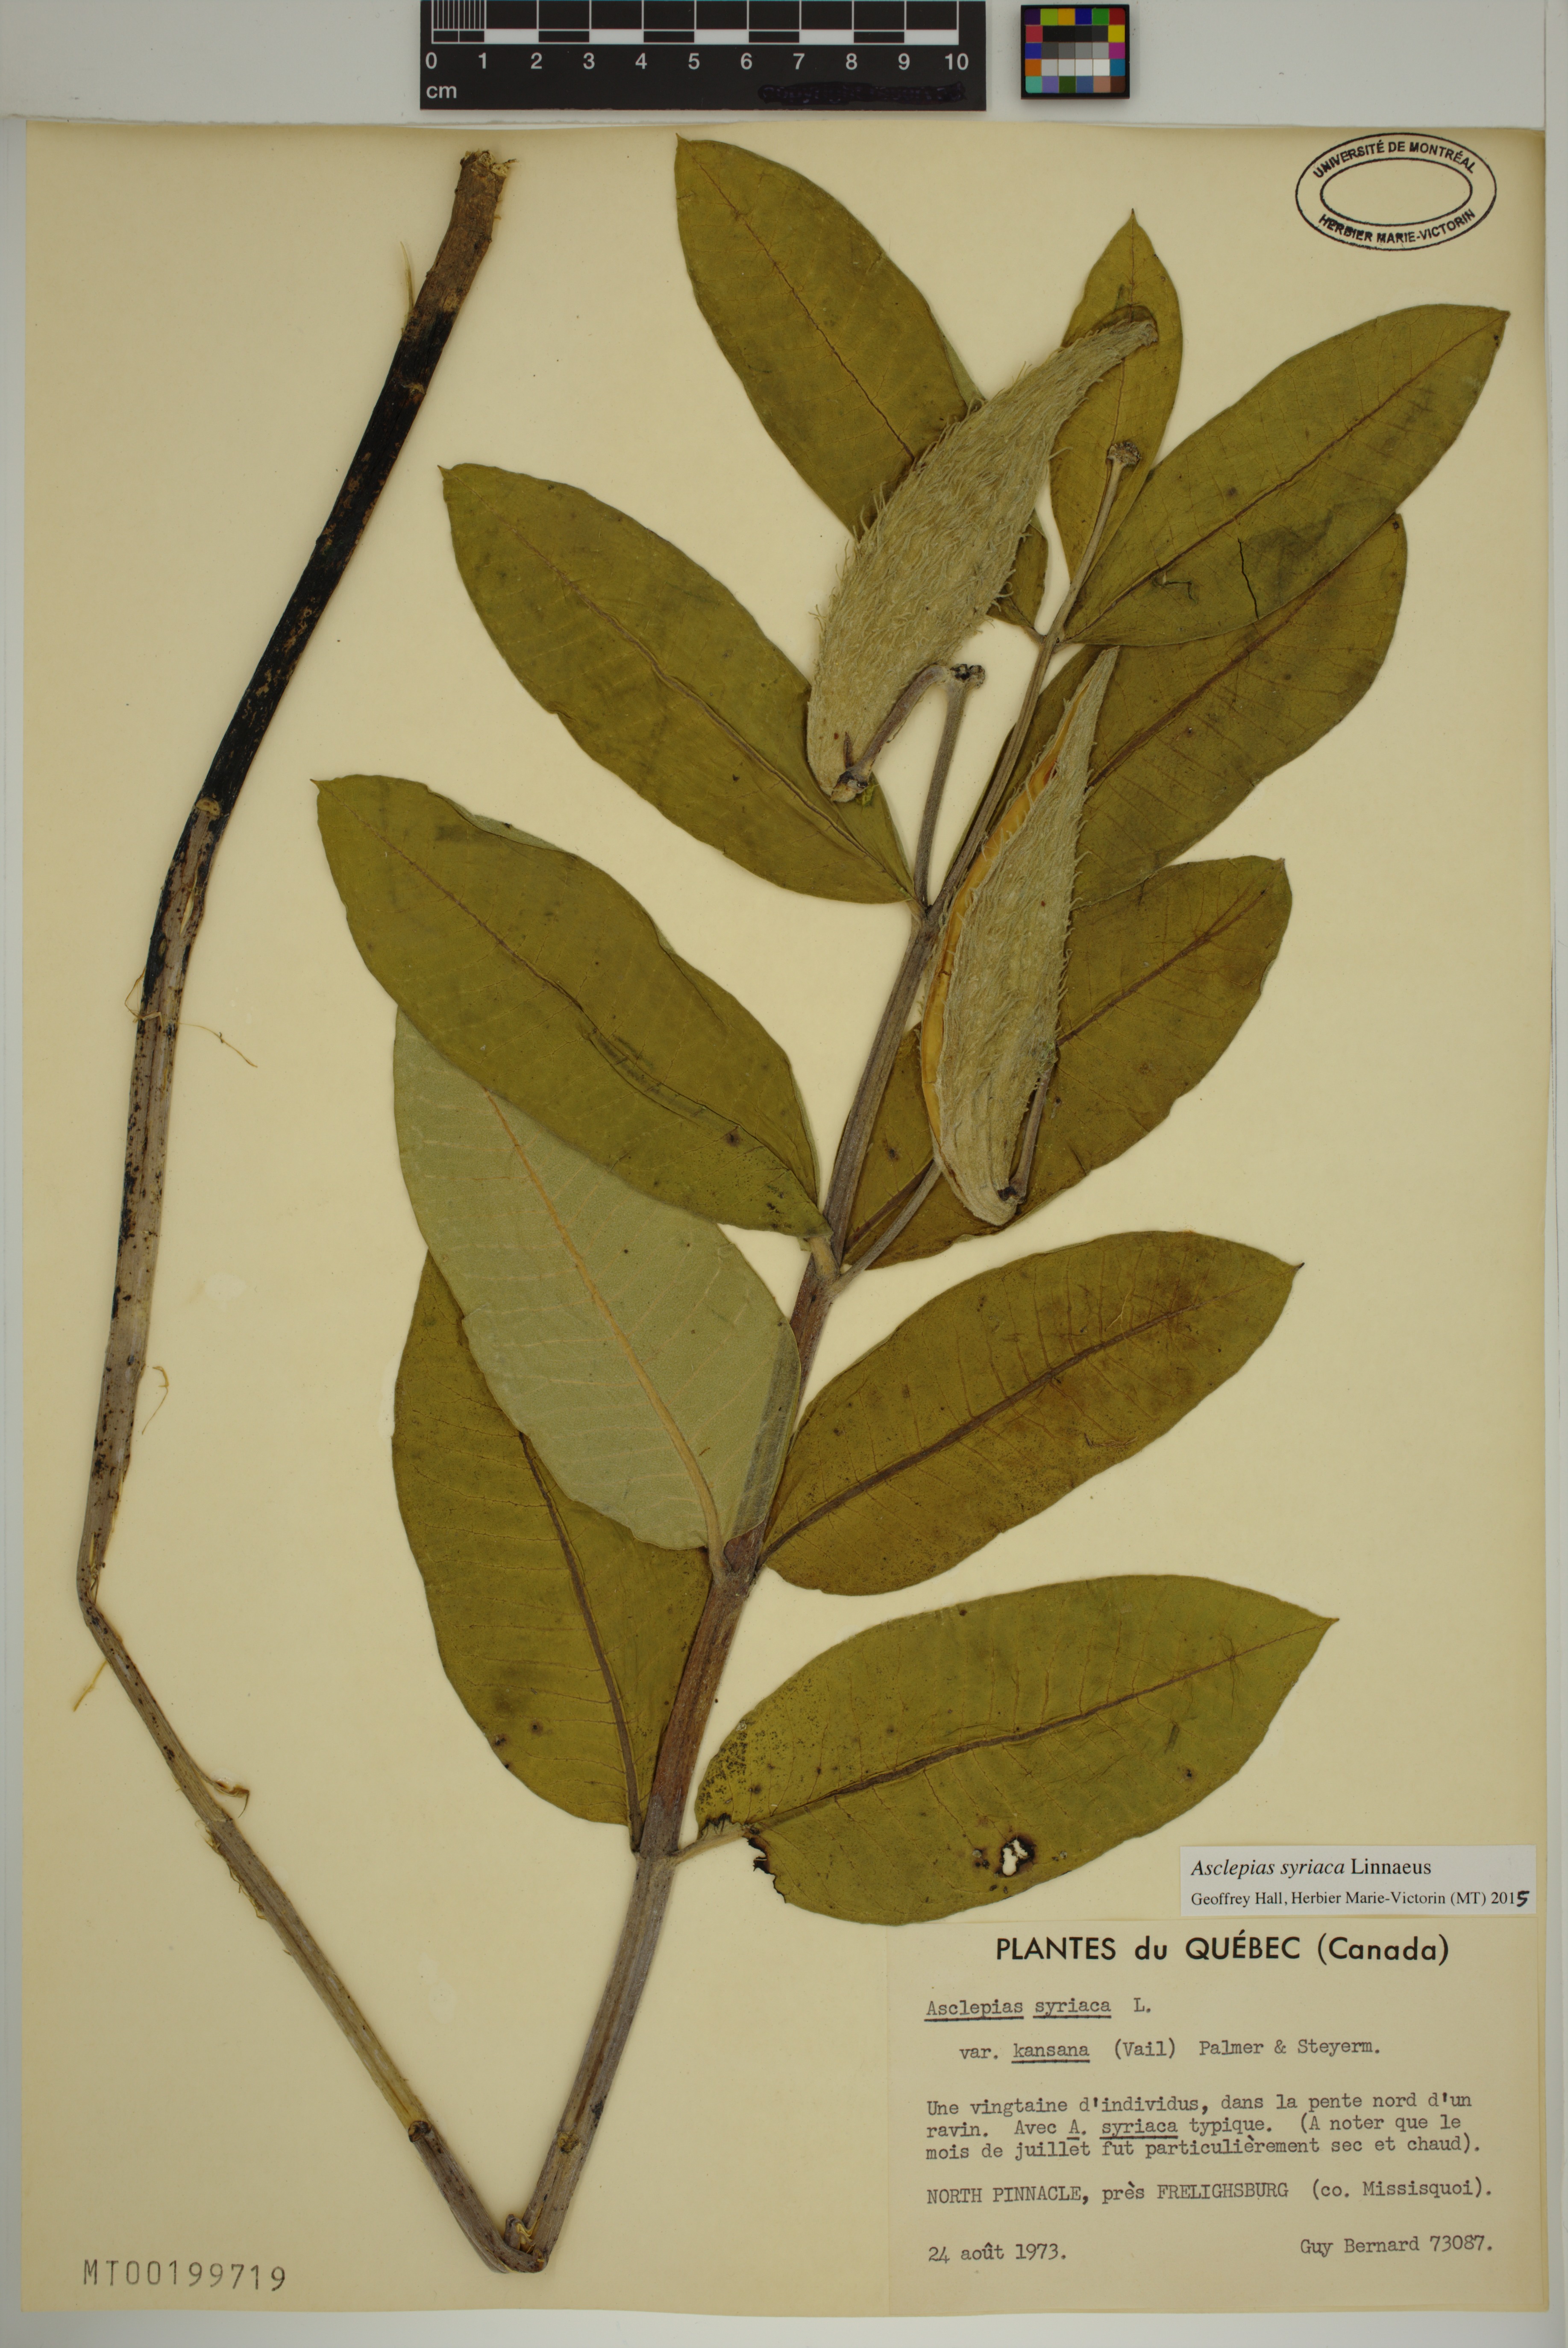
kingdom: Plantae
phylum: Tracheophyta
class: Magnoliopsida
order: Gentianales
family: Apocynaceae
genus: Asclepias
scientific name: Asclepias syriaca
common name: Common milkweed
